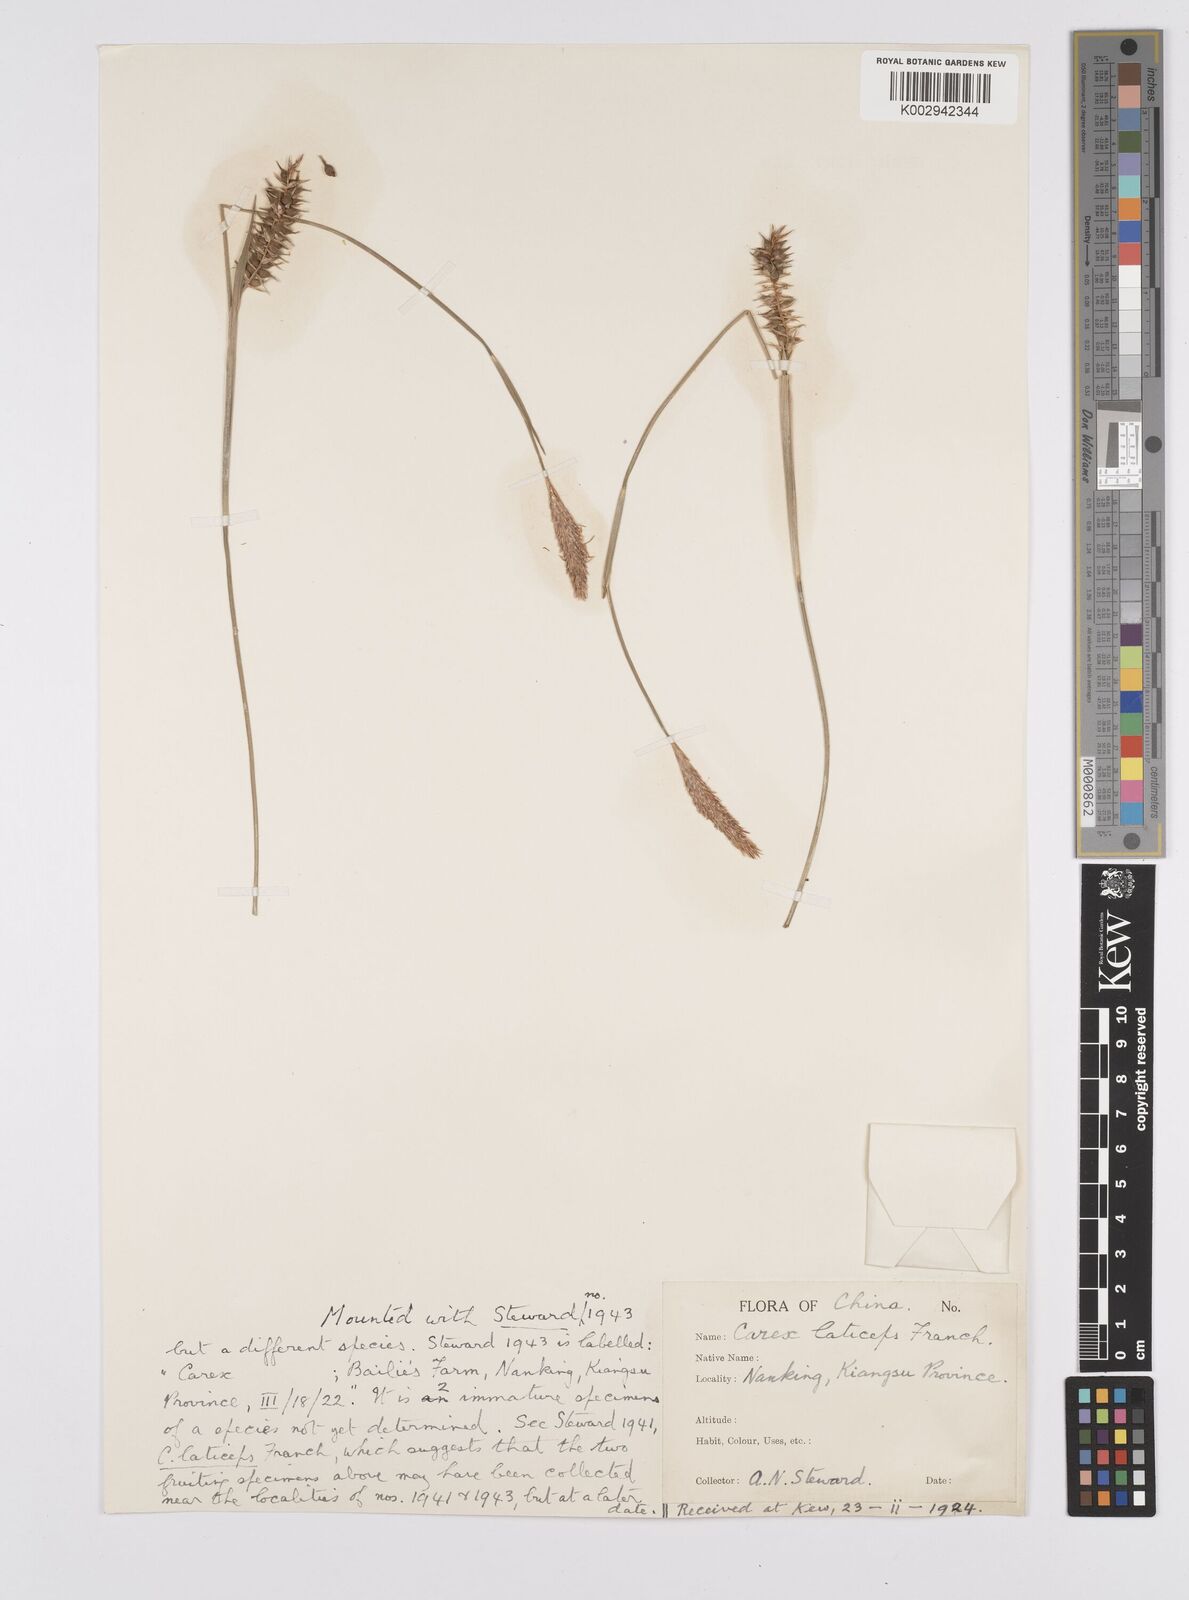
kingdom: Plantae
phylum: Tracheophyta
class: Liliopsida
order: Poales
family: Cyperaceae
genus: Carex
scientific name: Carex sampsonii
